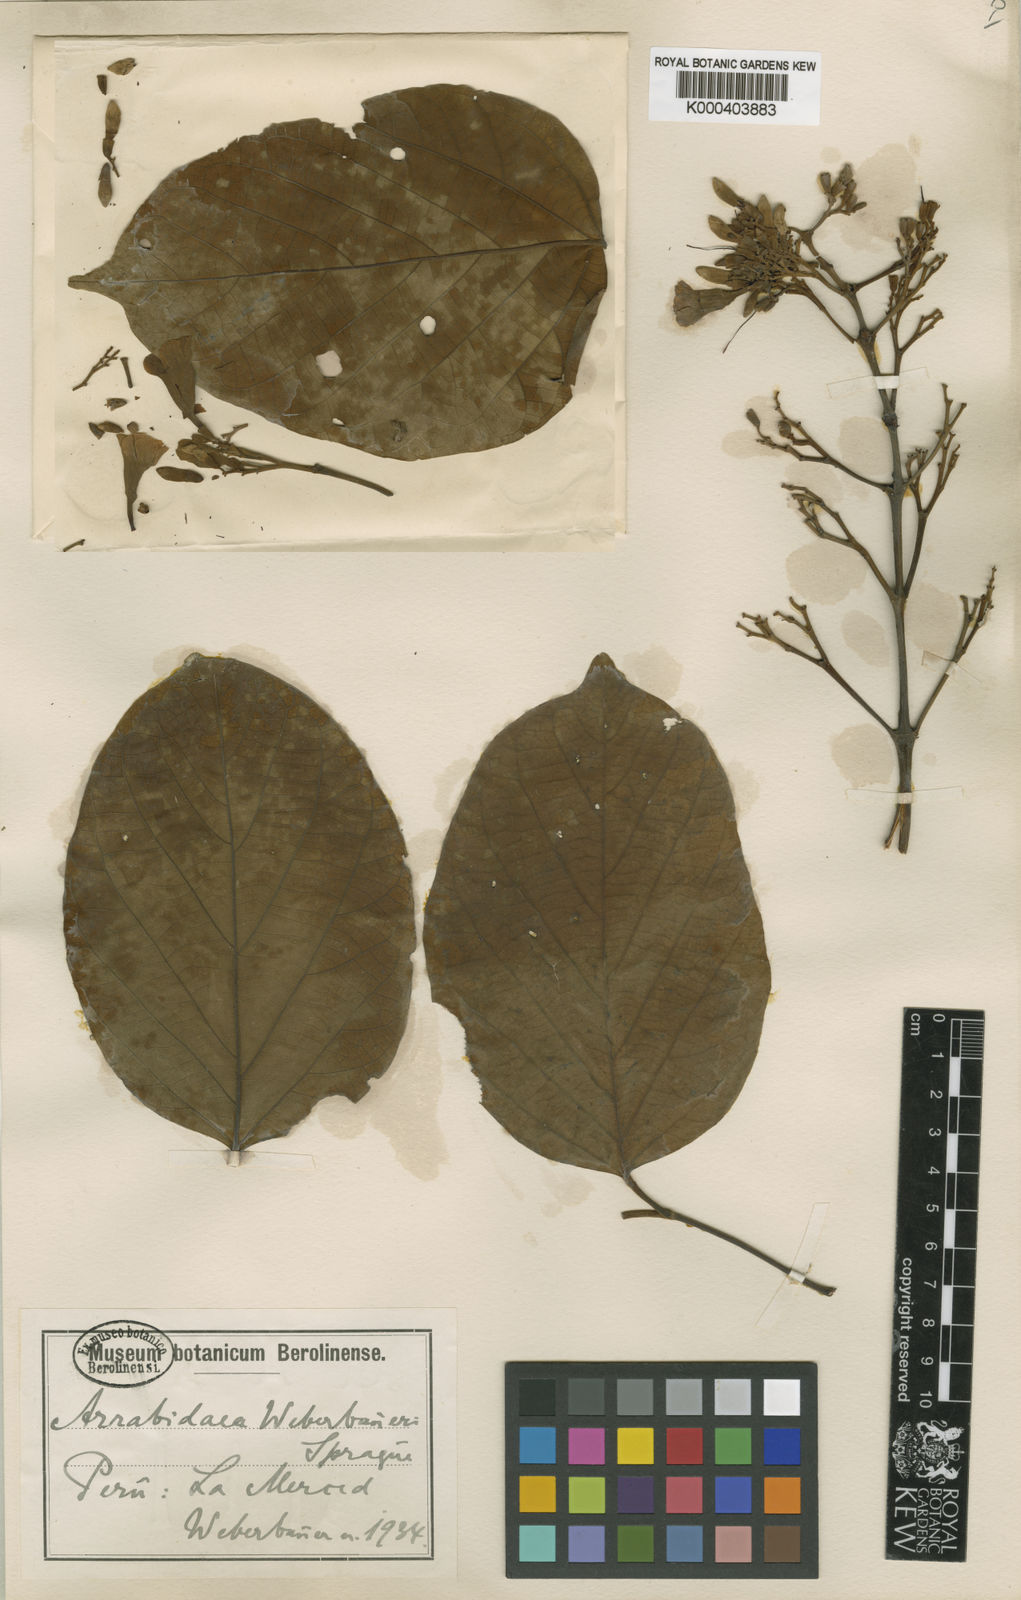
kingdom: Plantae
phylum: Tracheophyta
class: Magnoliopsida
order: Lamiales
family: Bignoniaceae
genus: Cuspidaria
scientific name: Cuspidaria weberbaueri
